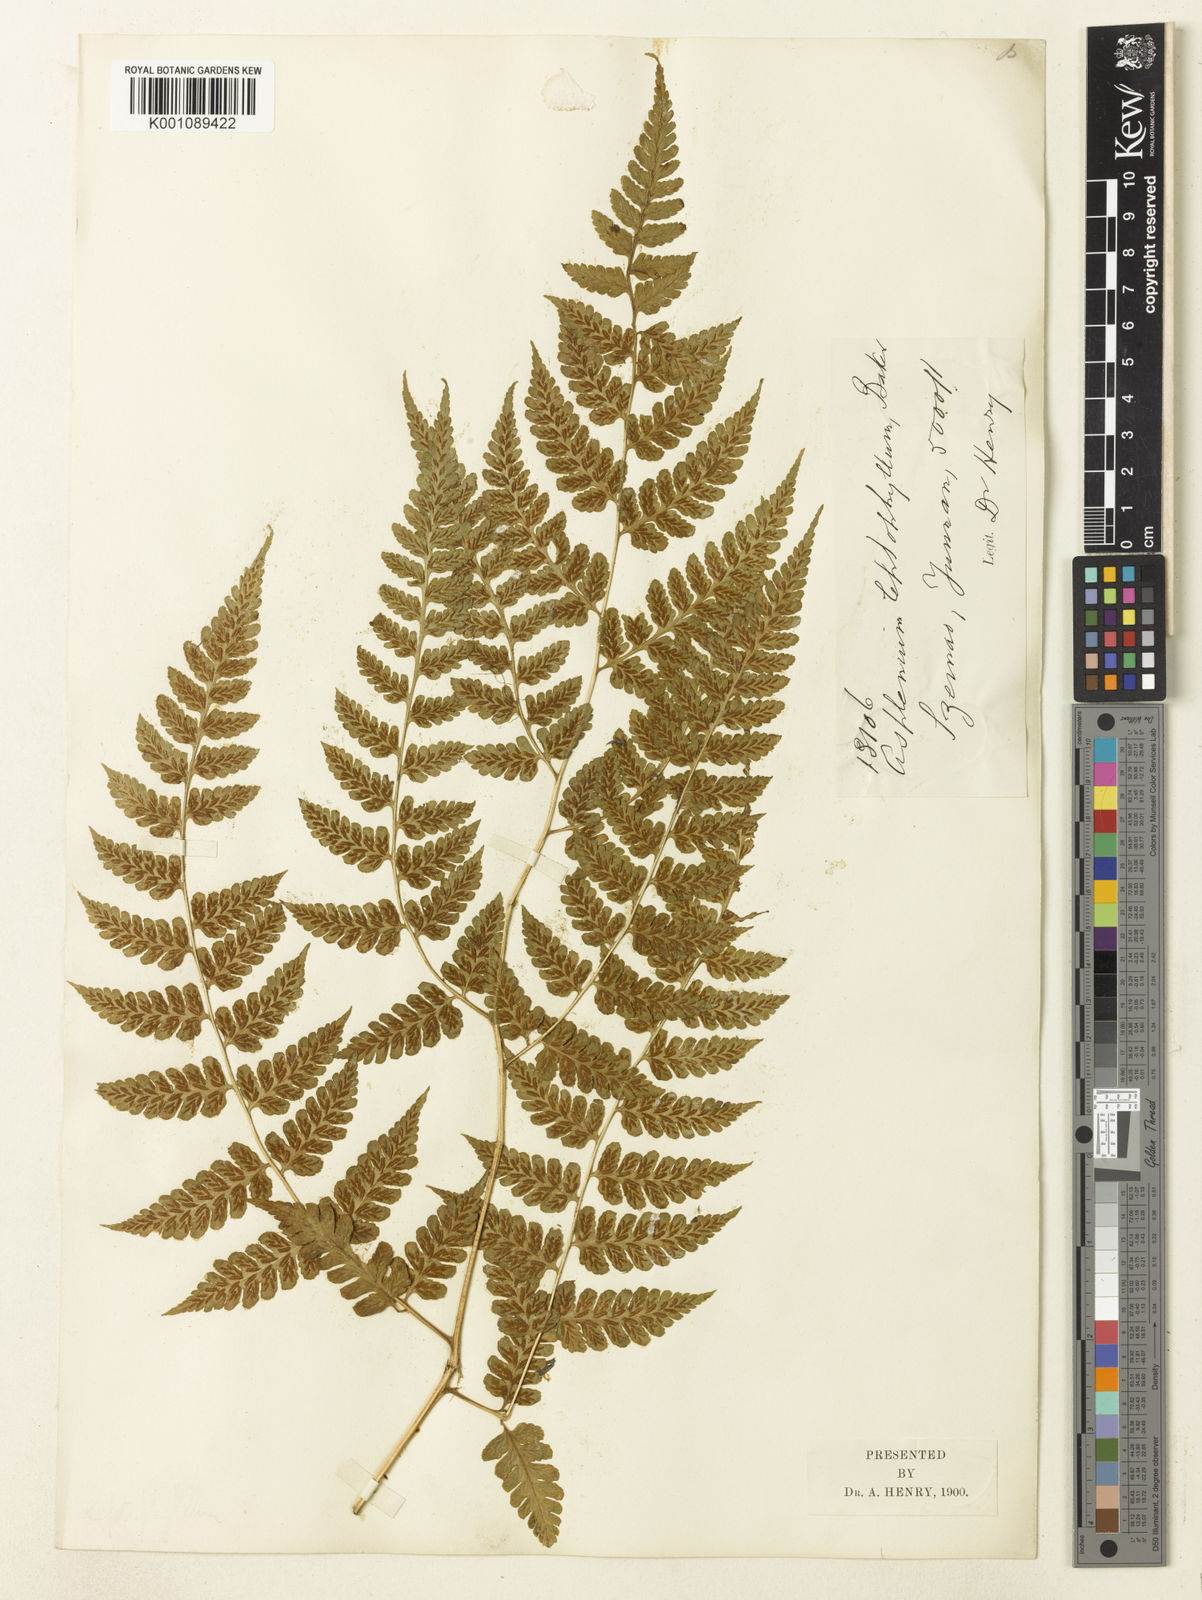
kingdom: Plantae
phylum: Tracheophyta
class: Polypodiopsida
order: Polypodiales
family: Athyriaceae
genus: Diplazium
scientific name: Diplazium leptophyllum
